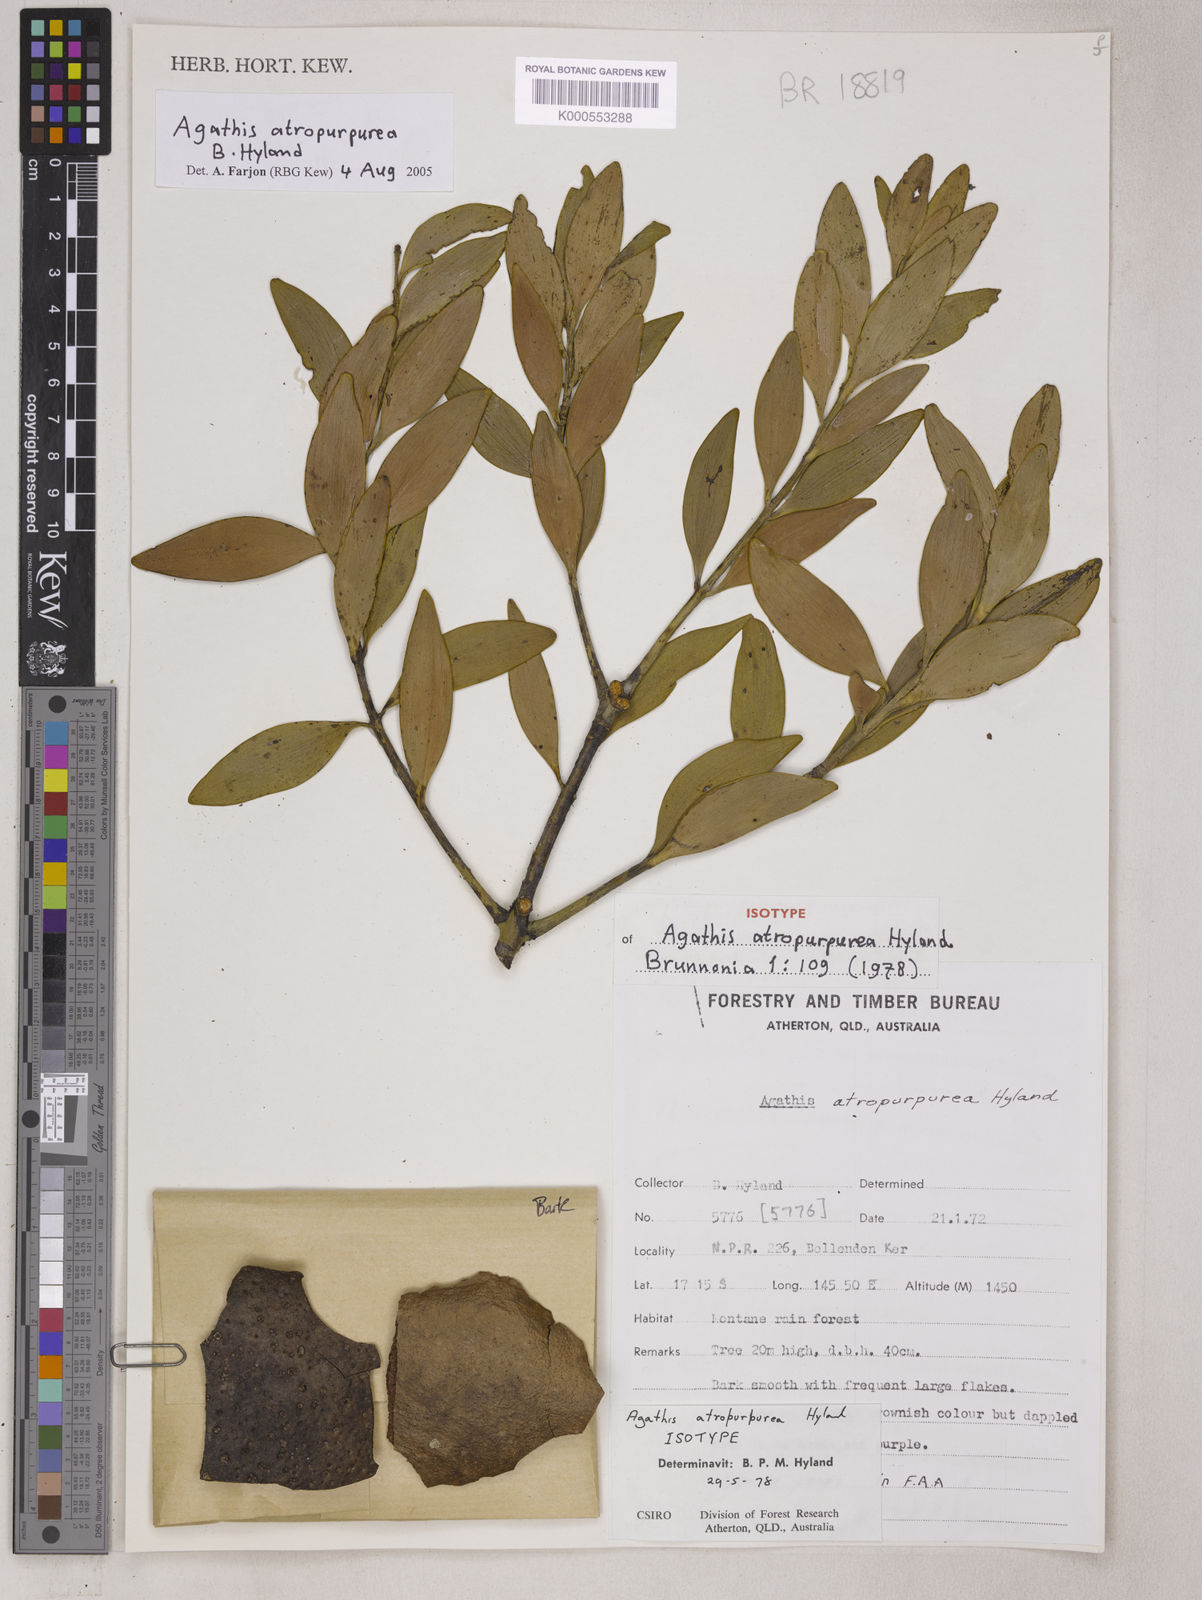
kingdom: Plantae
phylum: Tracheophyta
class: Pinopsida
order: Pinales
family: Araucariaceae
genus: Agathis
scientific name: Agathis atropurpurea
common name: Black kauri
